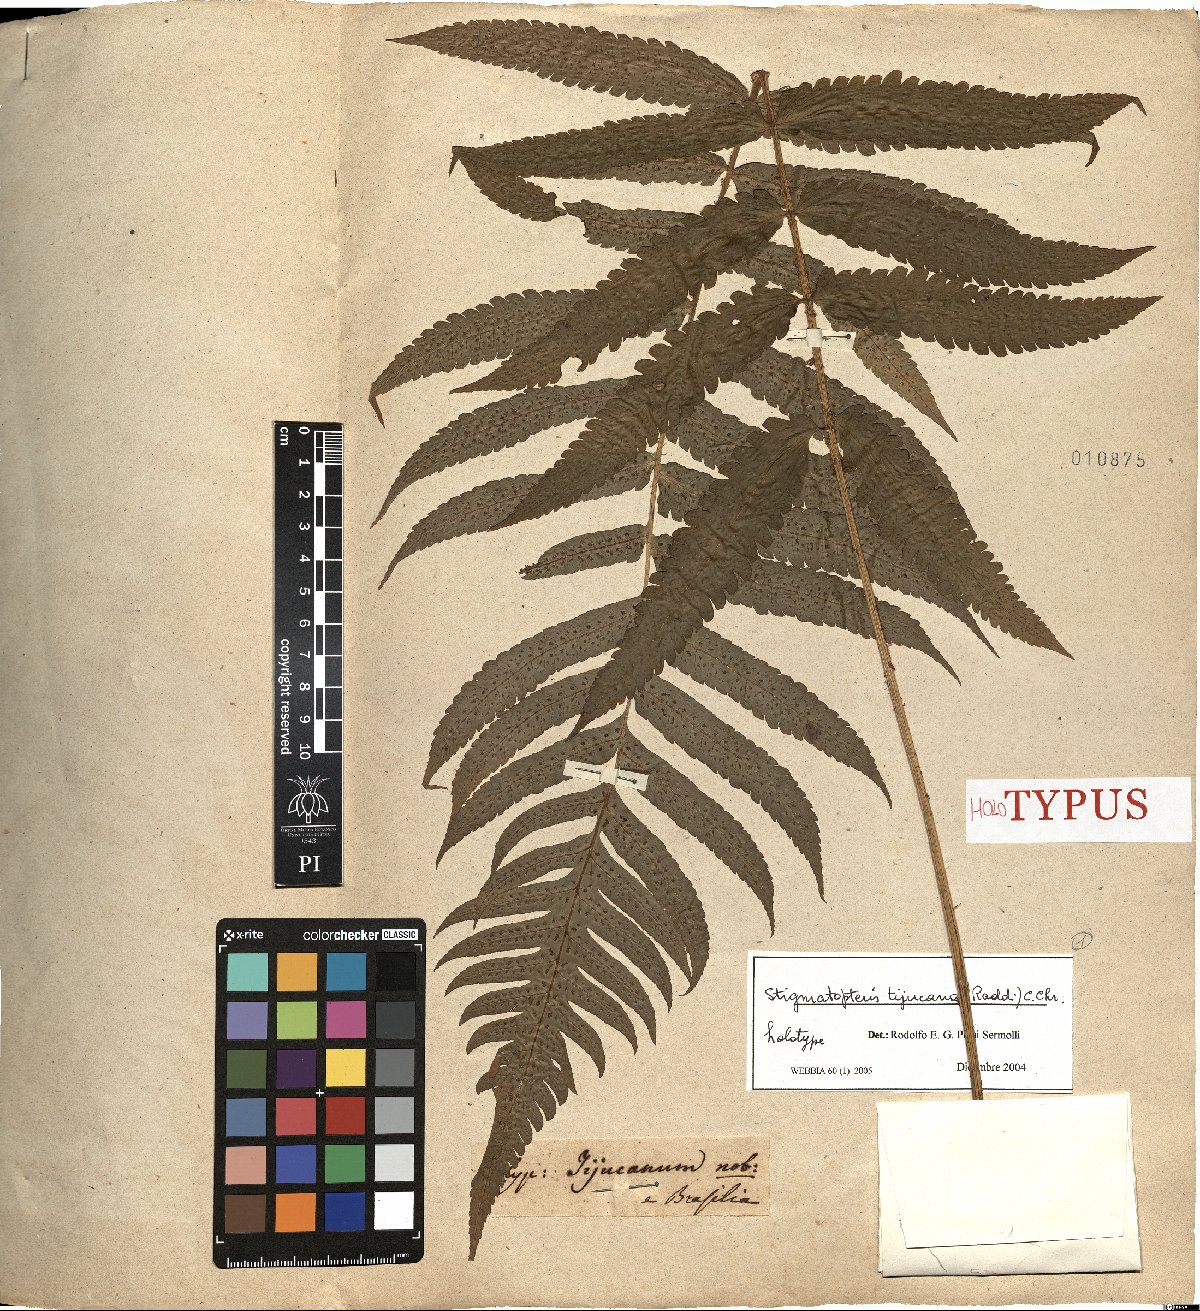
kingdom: Plantae
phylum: Tracheophyta
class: Polypodiopsida
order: Polypodiales
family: Dryopteridaceae
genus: Stigmatopteris
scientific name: Stigmatopteris tijuccana
